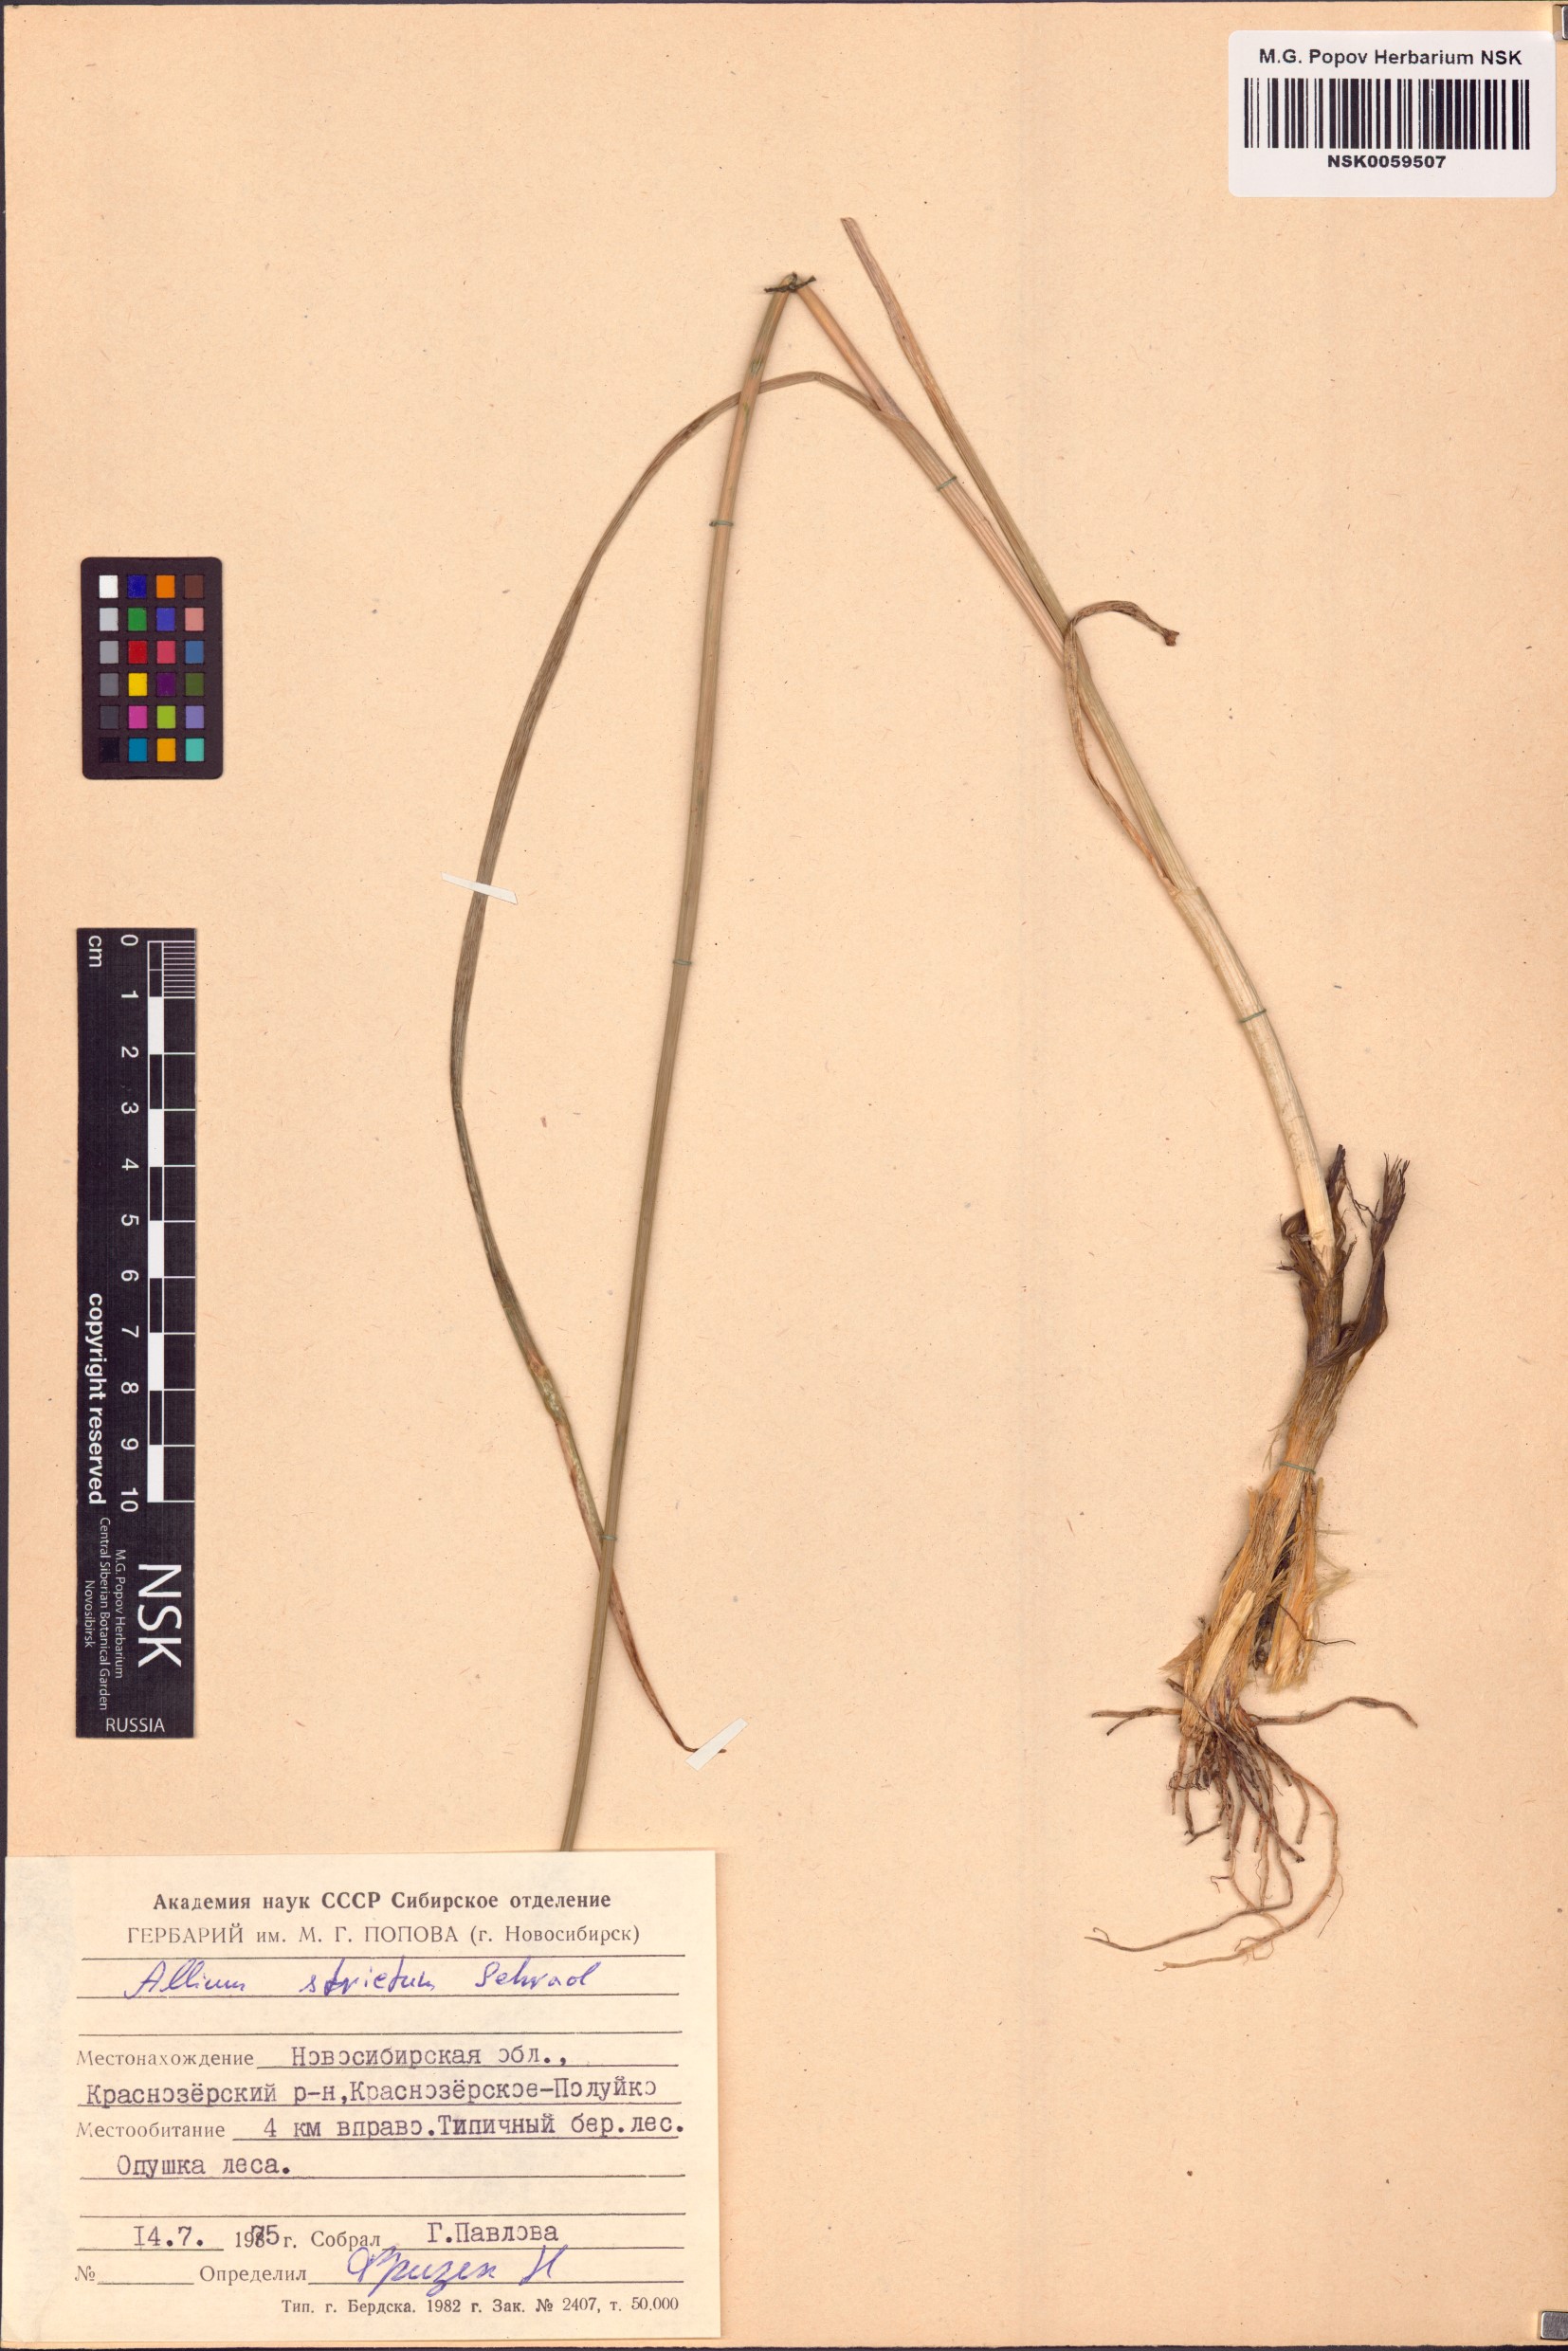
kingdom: Plantae
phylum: Tracheophyta
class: Liliopsida
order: Asparagales
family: Amaryllidaceae
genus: Allium
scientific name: Allium strictum
